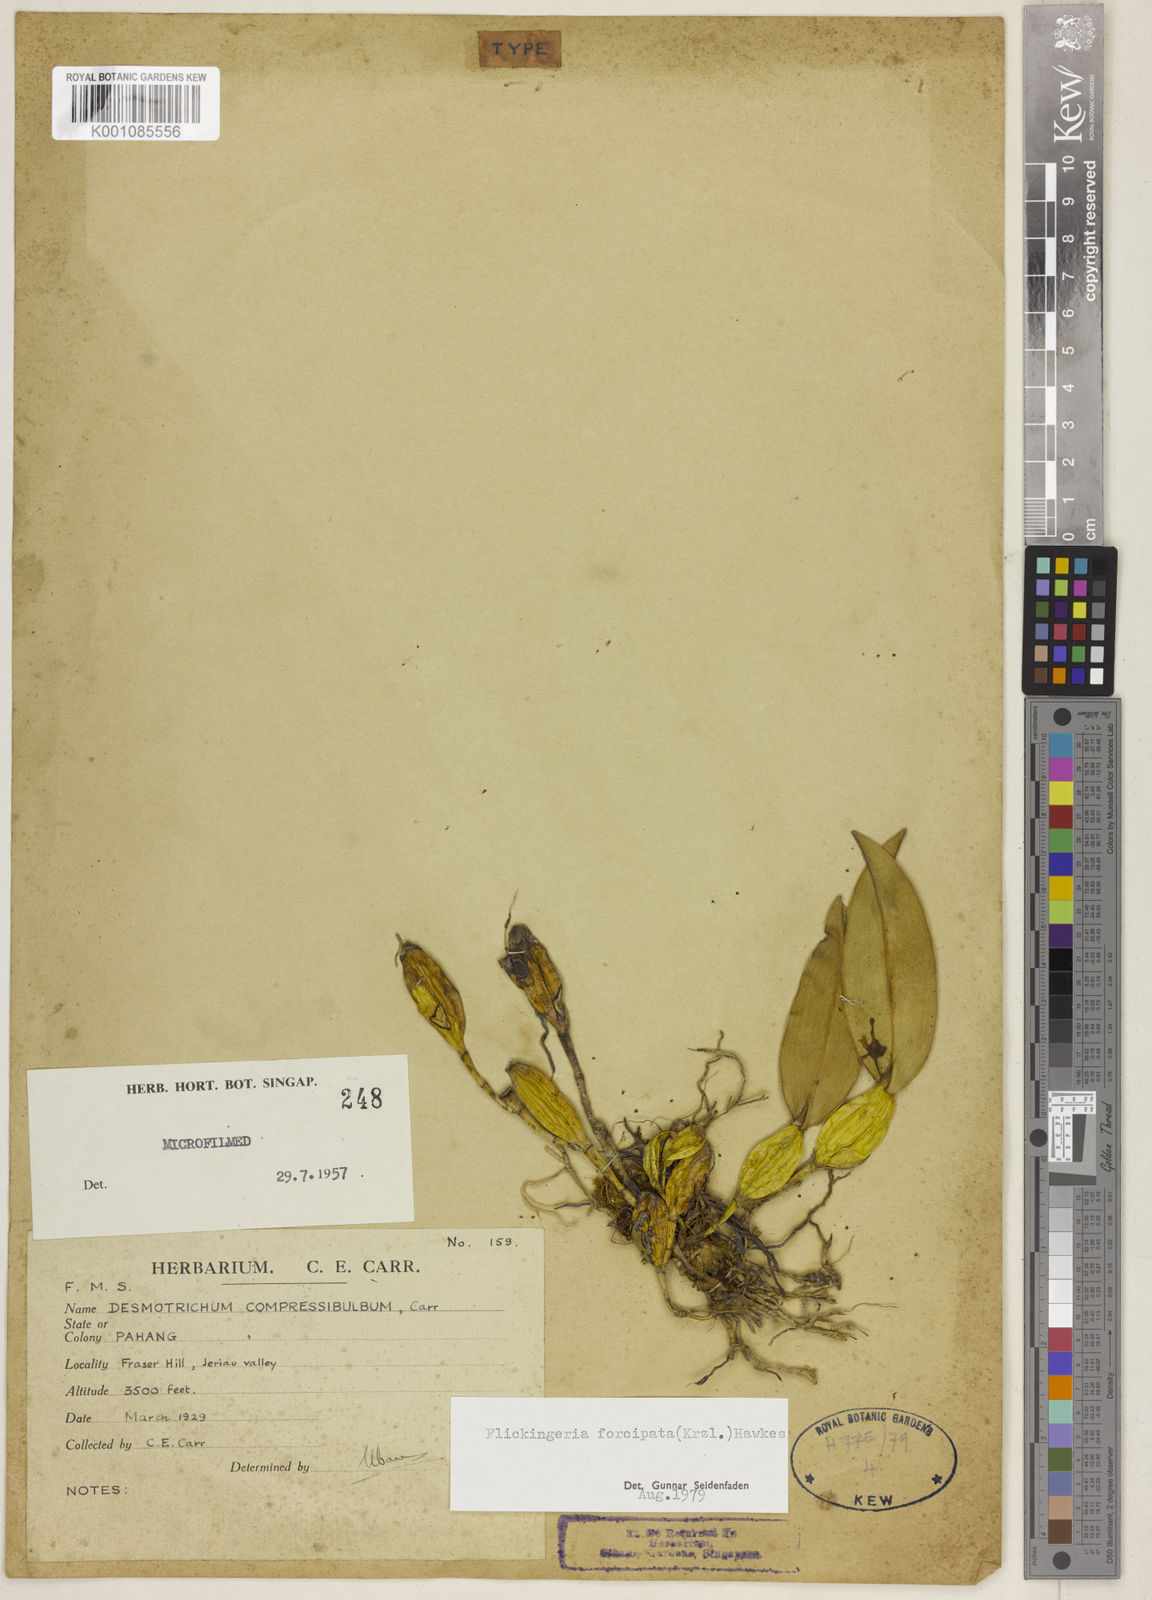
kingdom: Plantae
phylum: Tracheophyta
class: Liliopsida
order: Asparagales
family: Orchidaceae
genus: Dendrobium
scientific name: Dendrobium padangense
